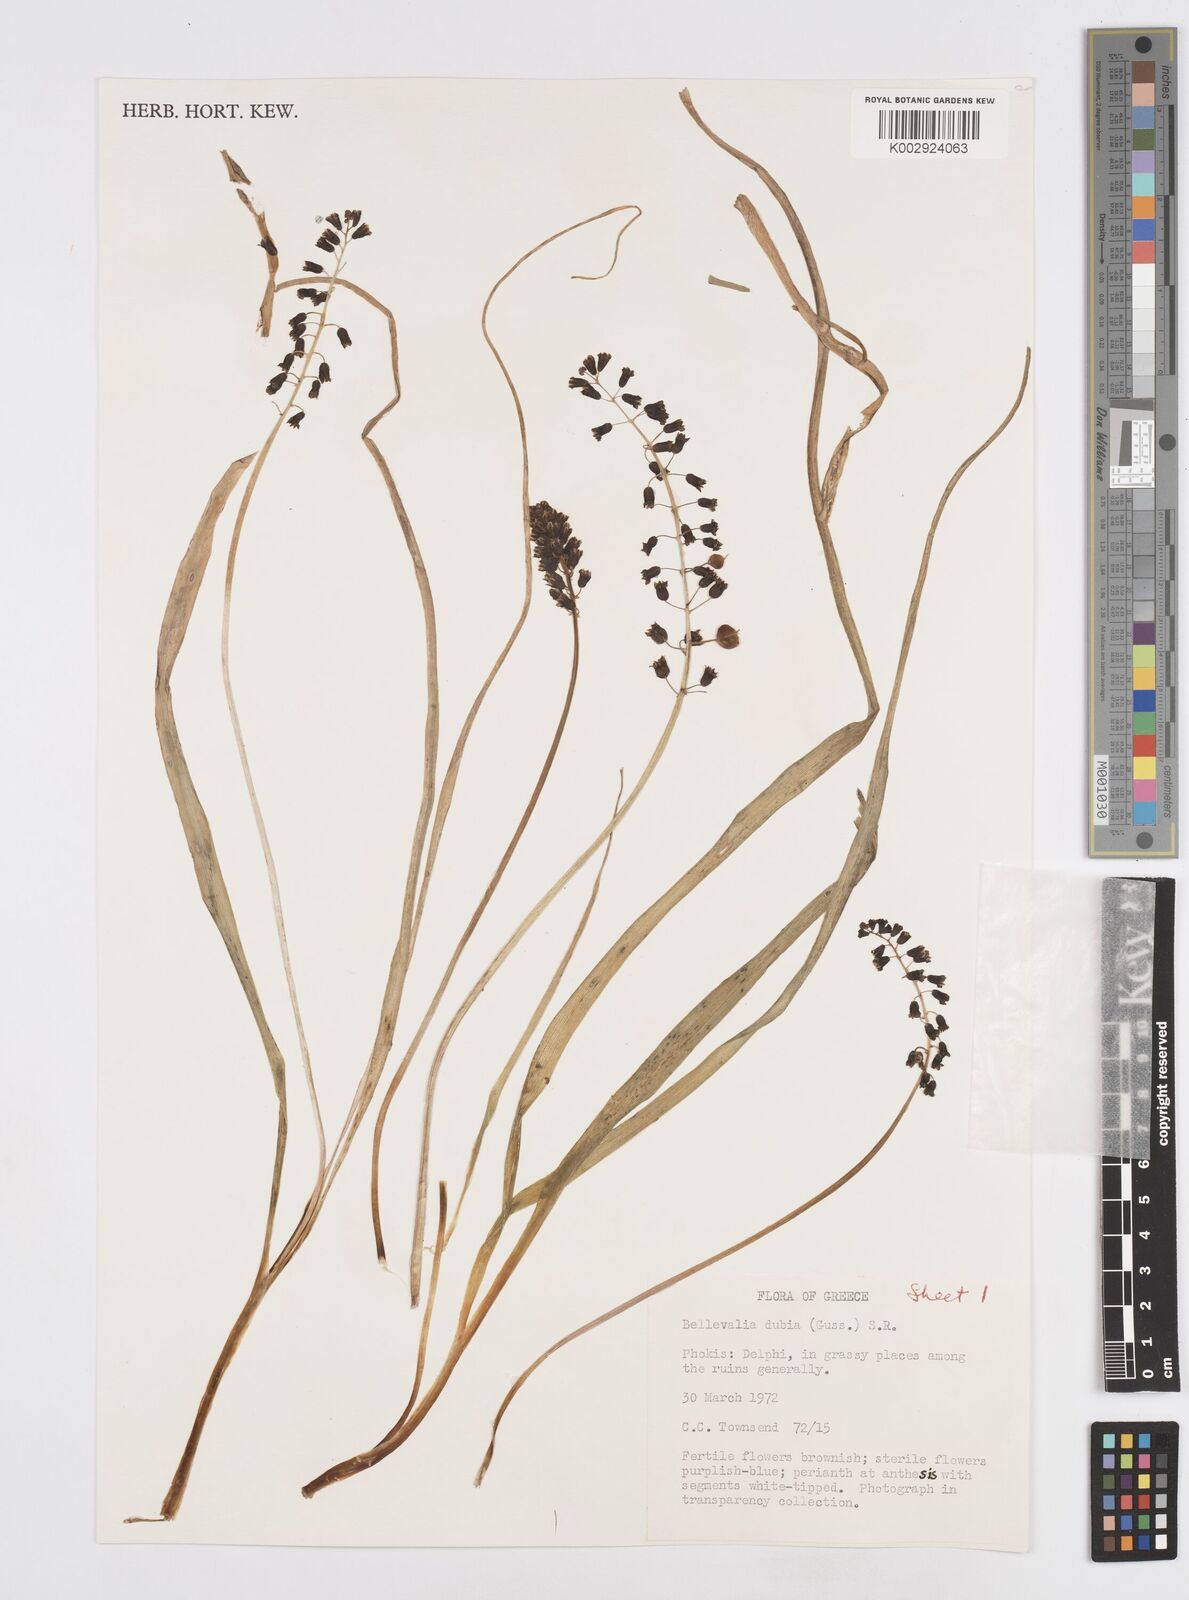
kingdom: Plantae
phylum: Tracheophyta
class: Liliopsida
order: Asparagales
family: Asparagaceae
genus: Bellevalia
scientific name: Bellevalia dubia
